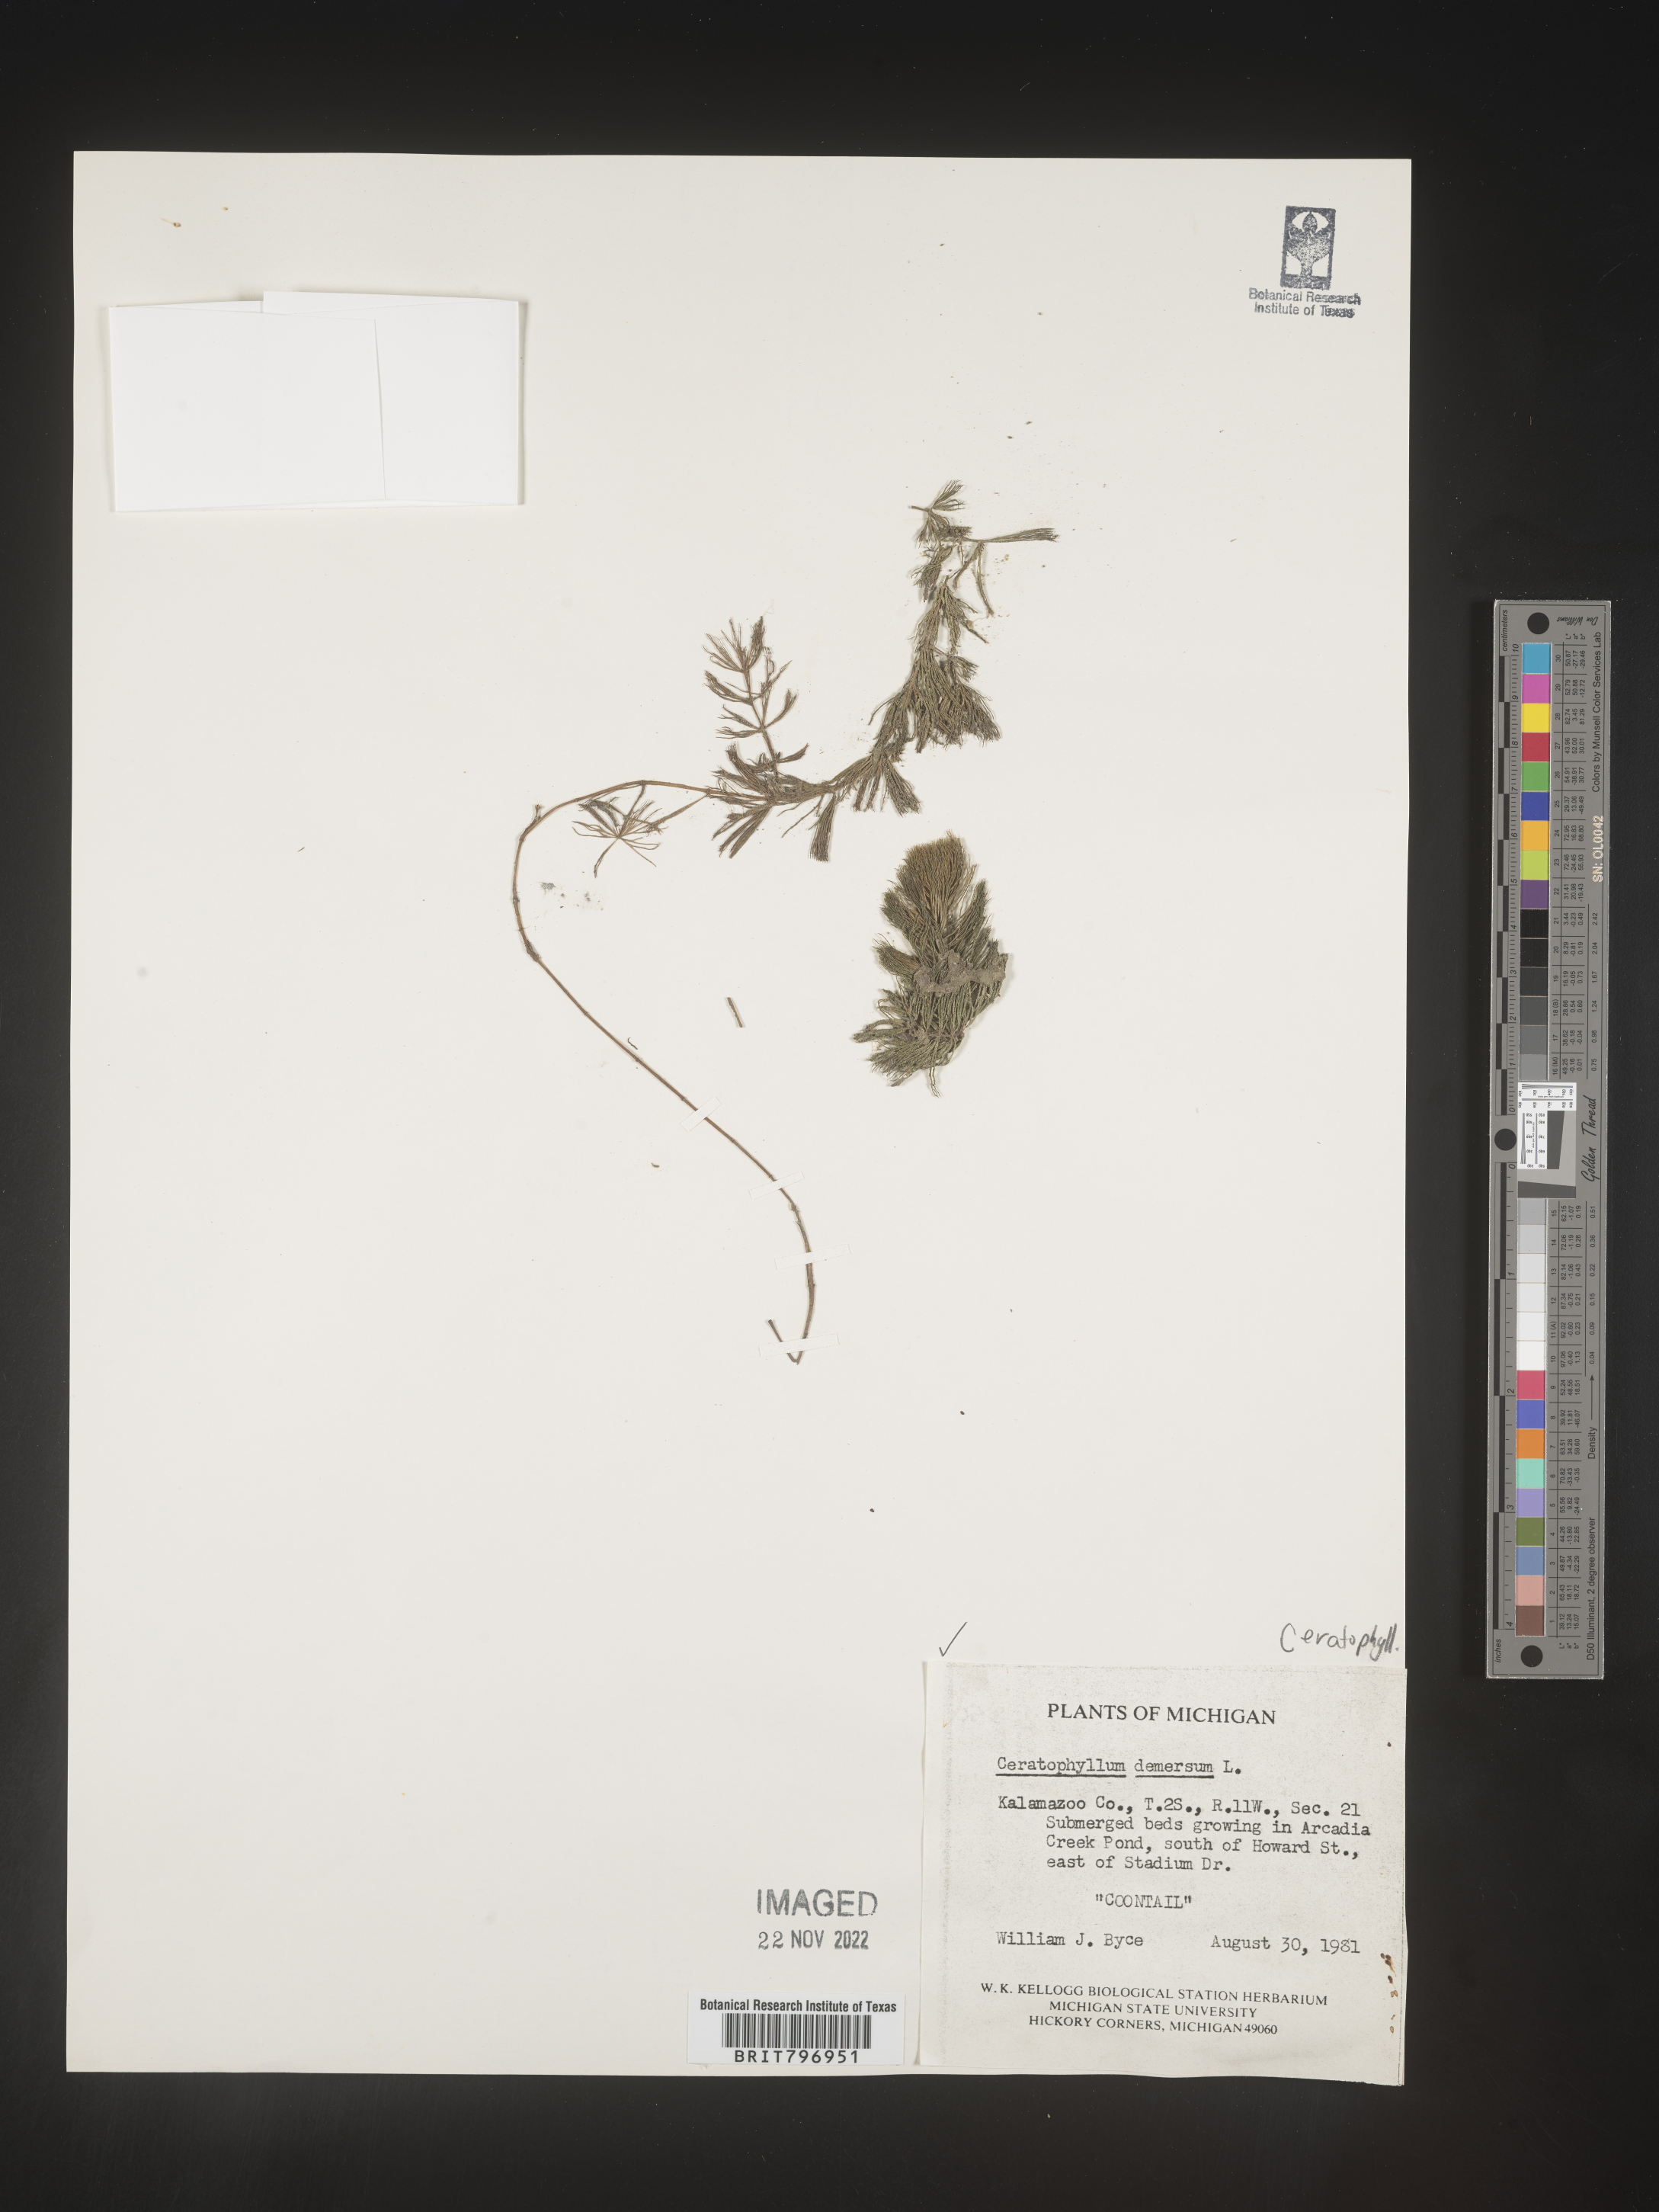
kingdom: Plantae
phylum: Tracheophyta
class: Magnoliopsida
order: Ceratophyllales
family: Ceratophyllaceae
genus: Ceratophyllum
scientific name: Ceratophyllum demersum
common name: Rigid hornwort
